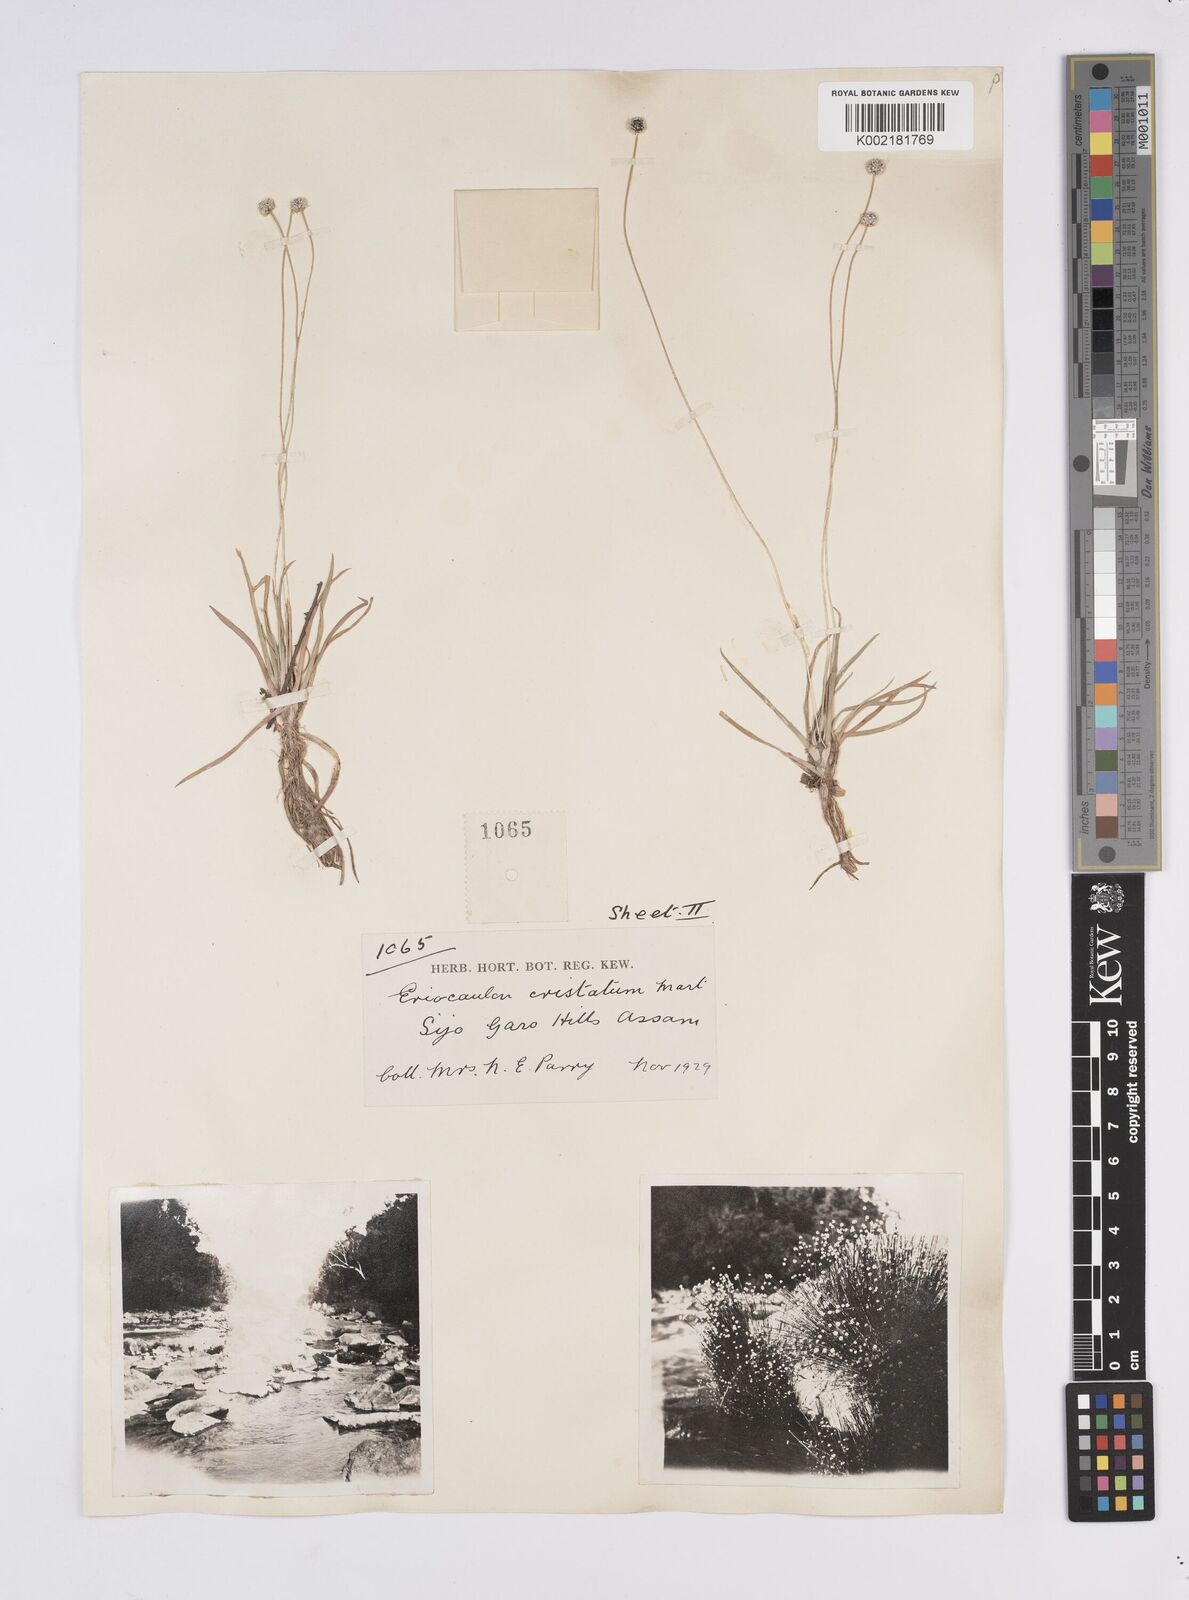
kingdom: Plantae
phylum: Tracheophyta
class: Liliopsida
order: Poales
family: Eriocaulaceae
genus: Eriocaulon
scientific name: Eriocaulon cristatum
